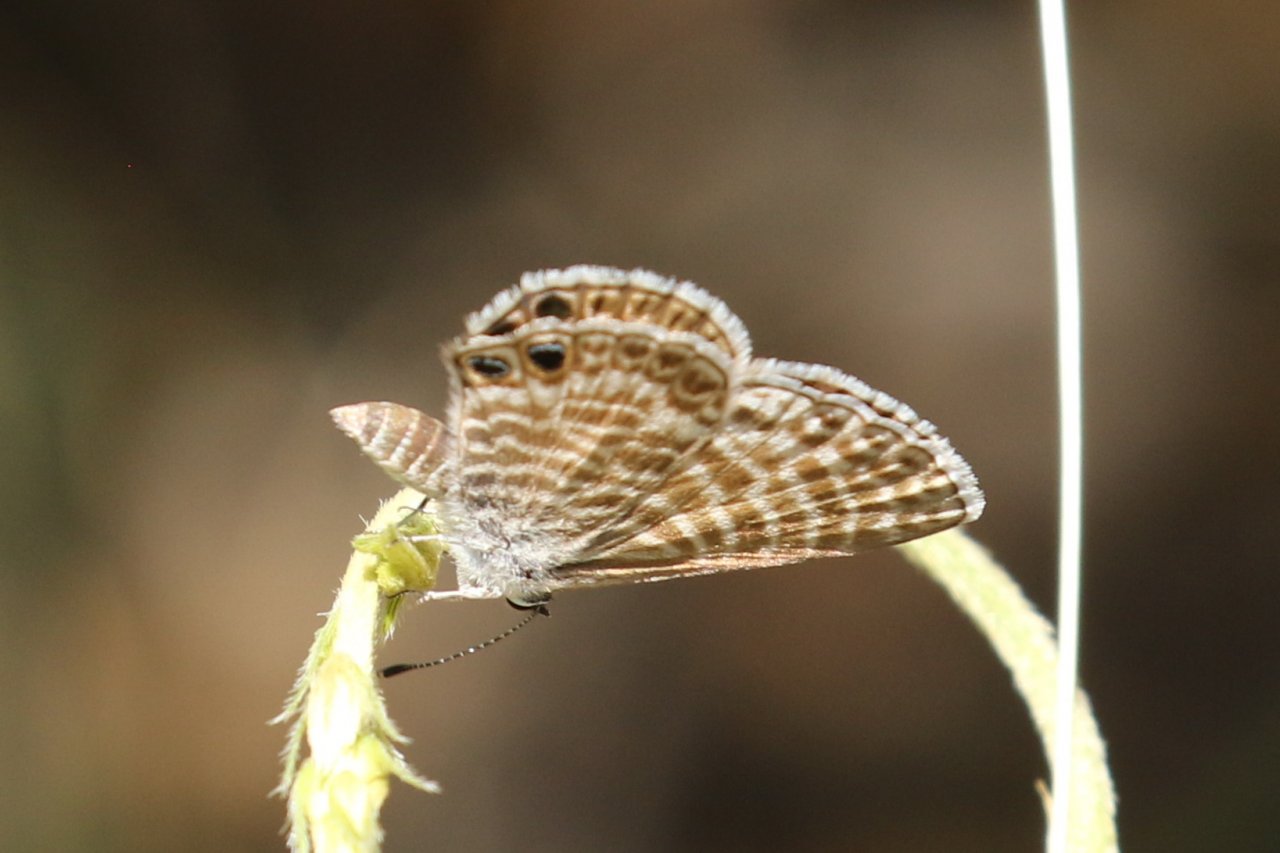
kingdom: Animalia
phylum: Arthropoda
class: Insecta
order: Lepidoptera
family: Lycaenidae
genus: Leptotes
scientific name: Leptotes marina
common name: Marine Blue
